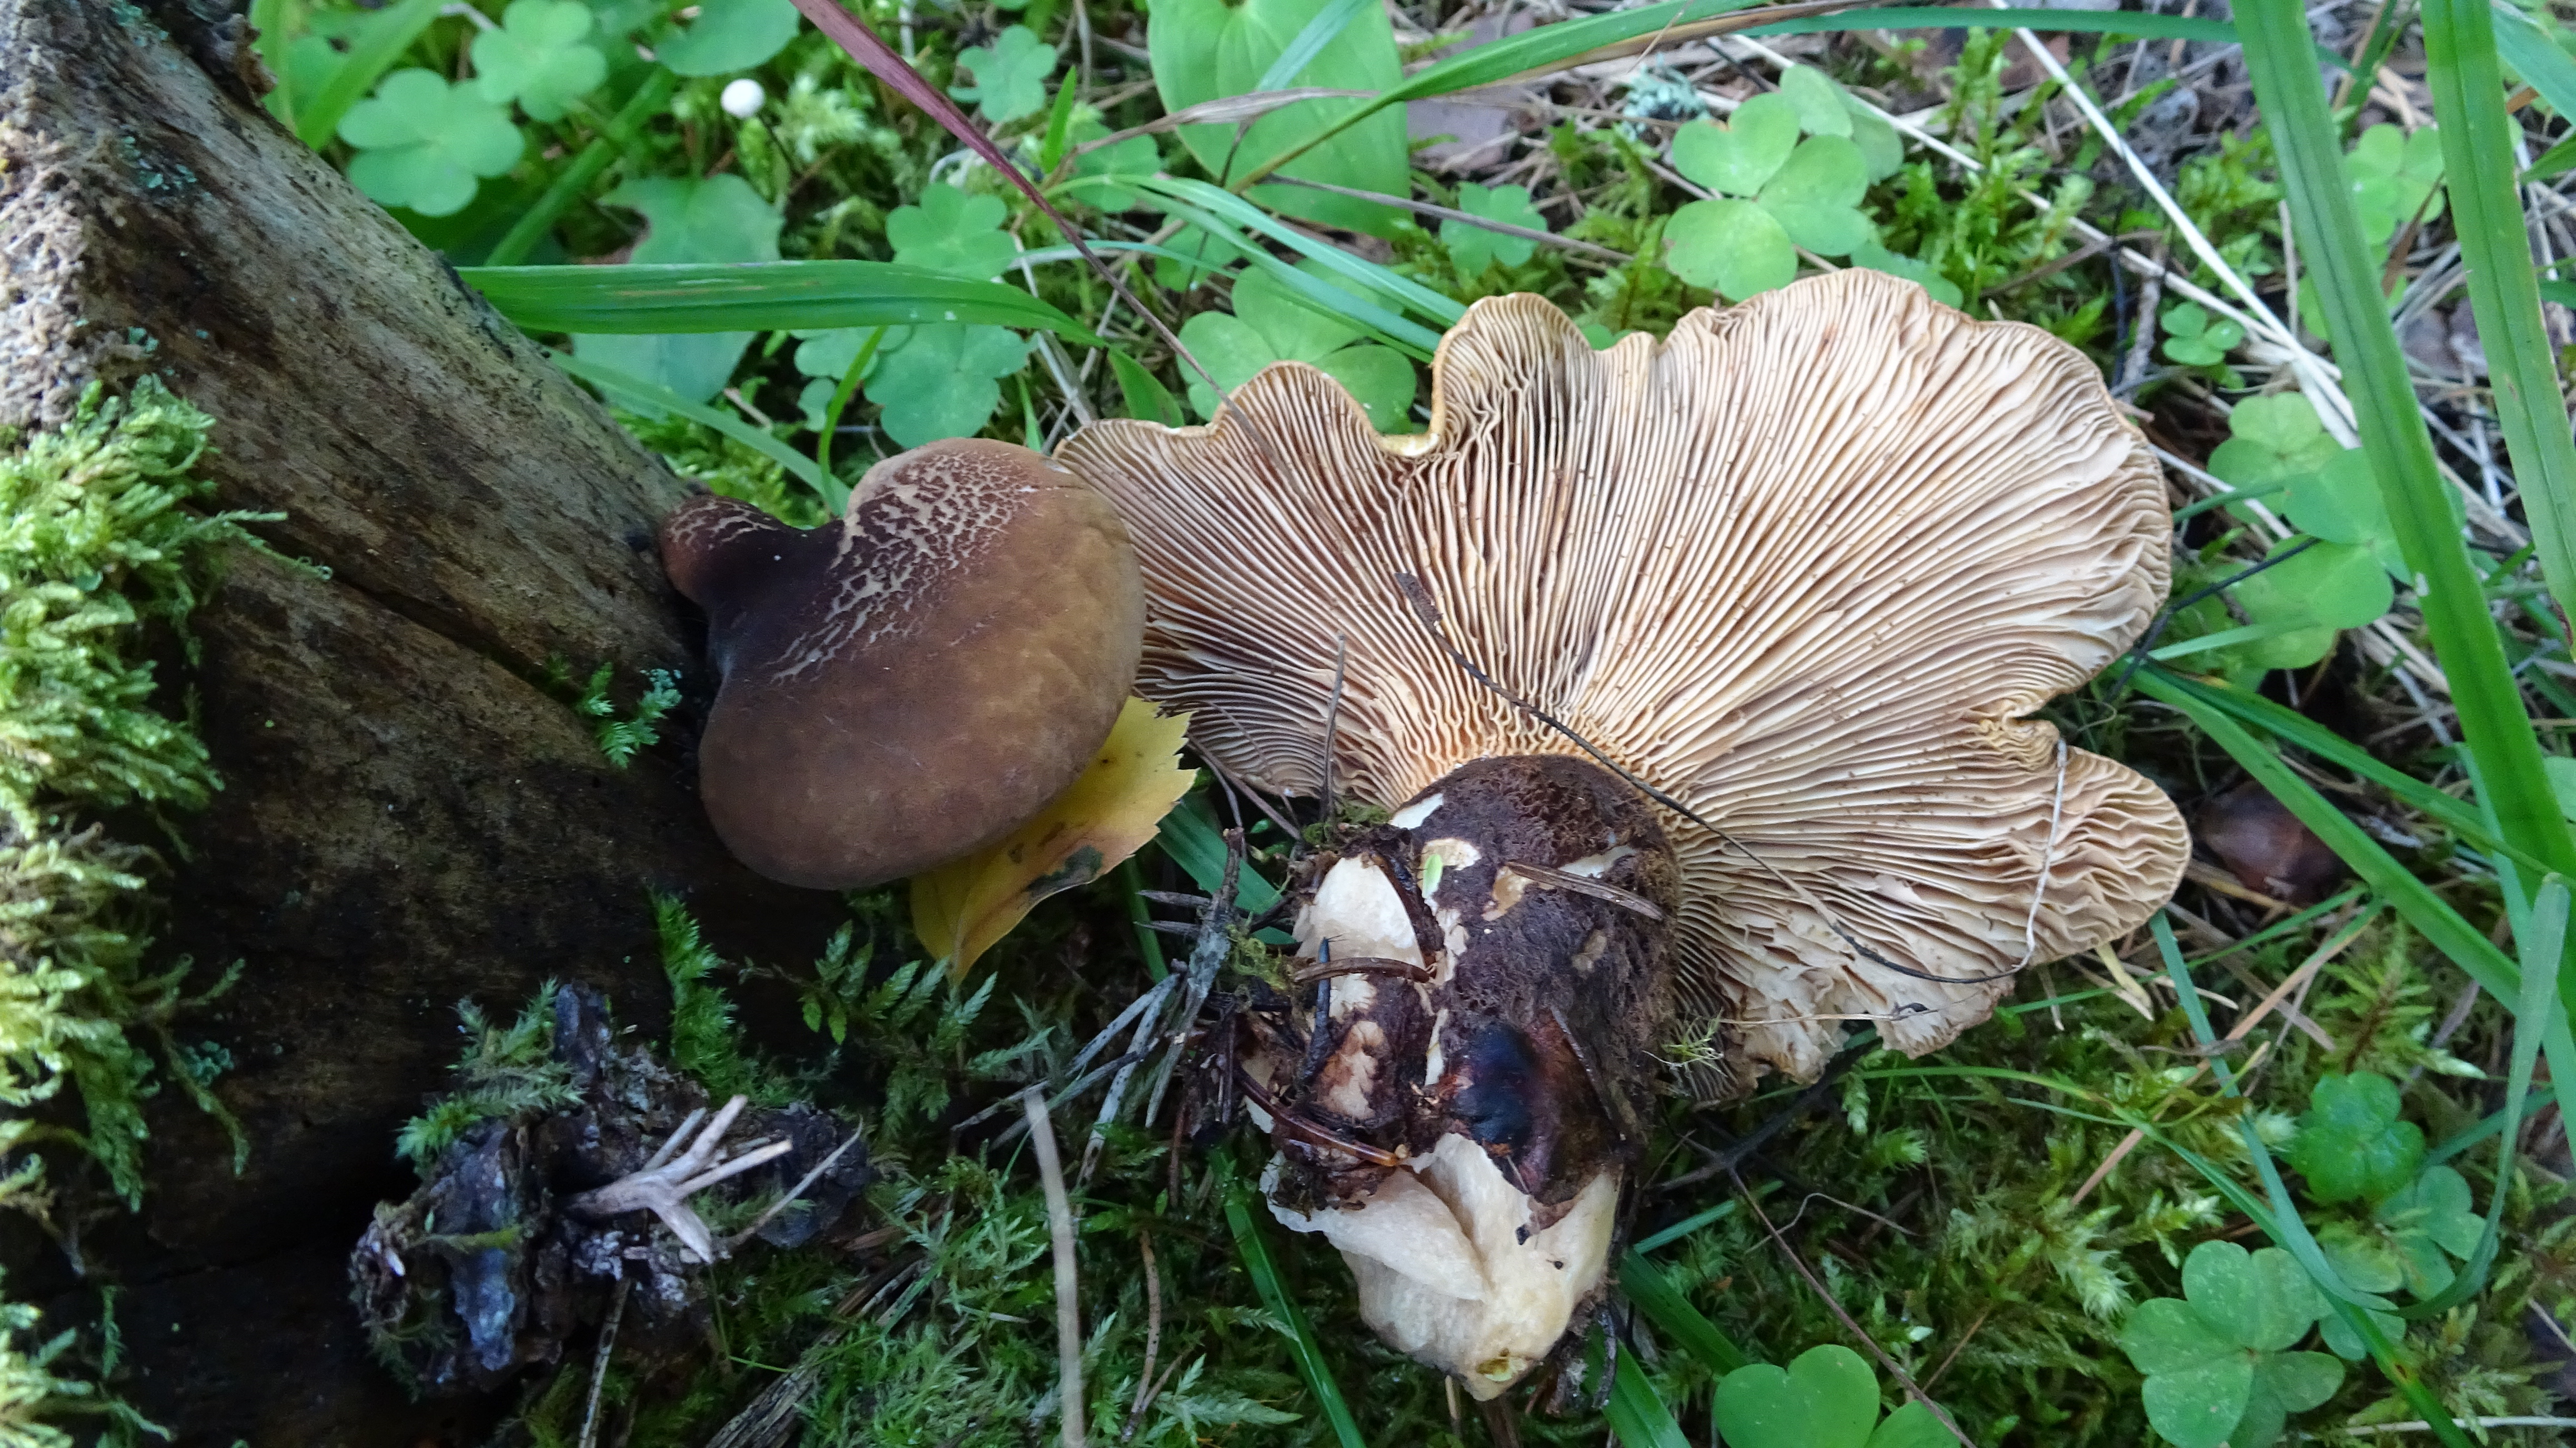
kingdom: Fungi
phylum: Basidiomycota
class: Agaricomycetes
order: Boletales
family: Tapinellaceae
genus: Tapinella
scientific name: Tapinella atrotomentosa
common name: Velvet rollrim
